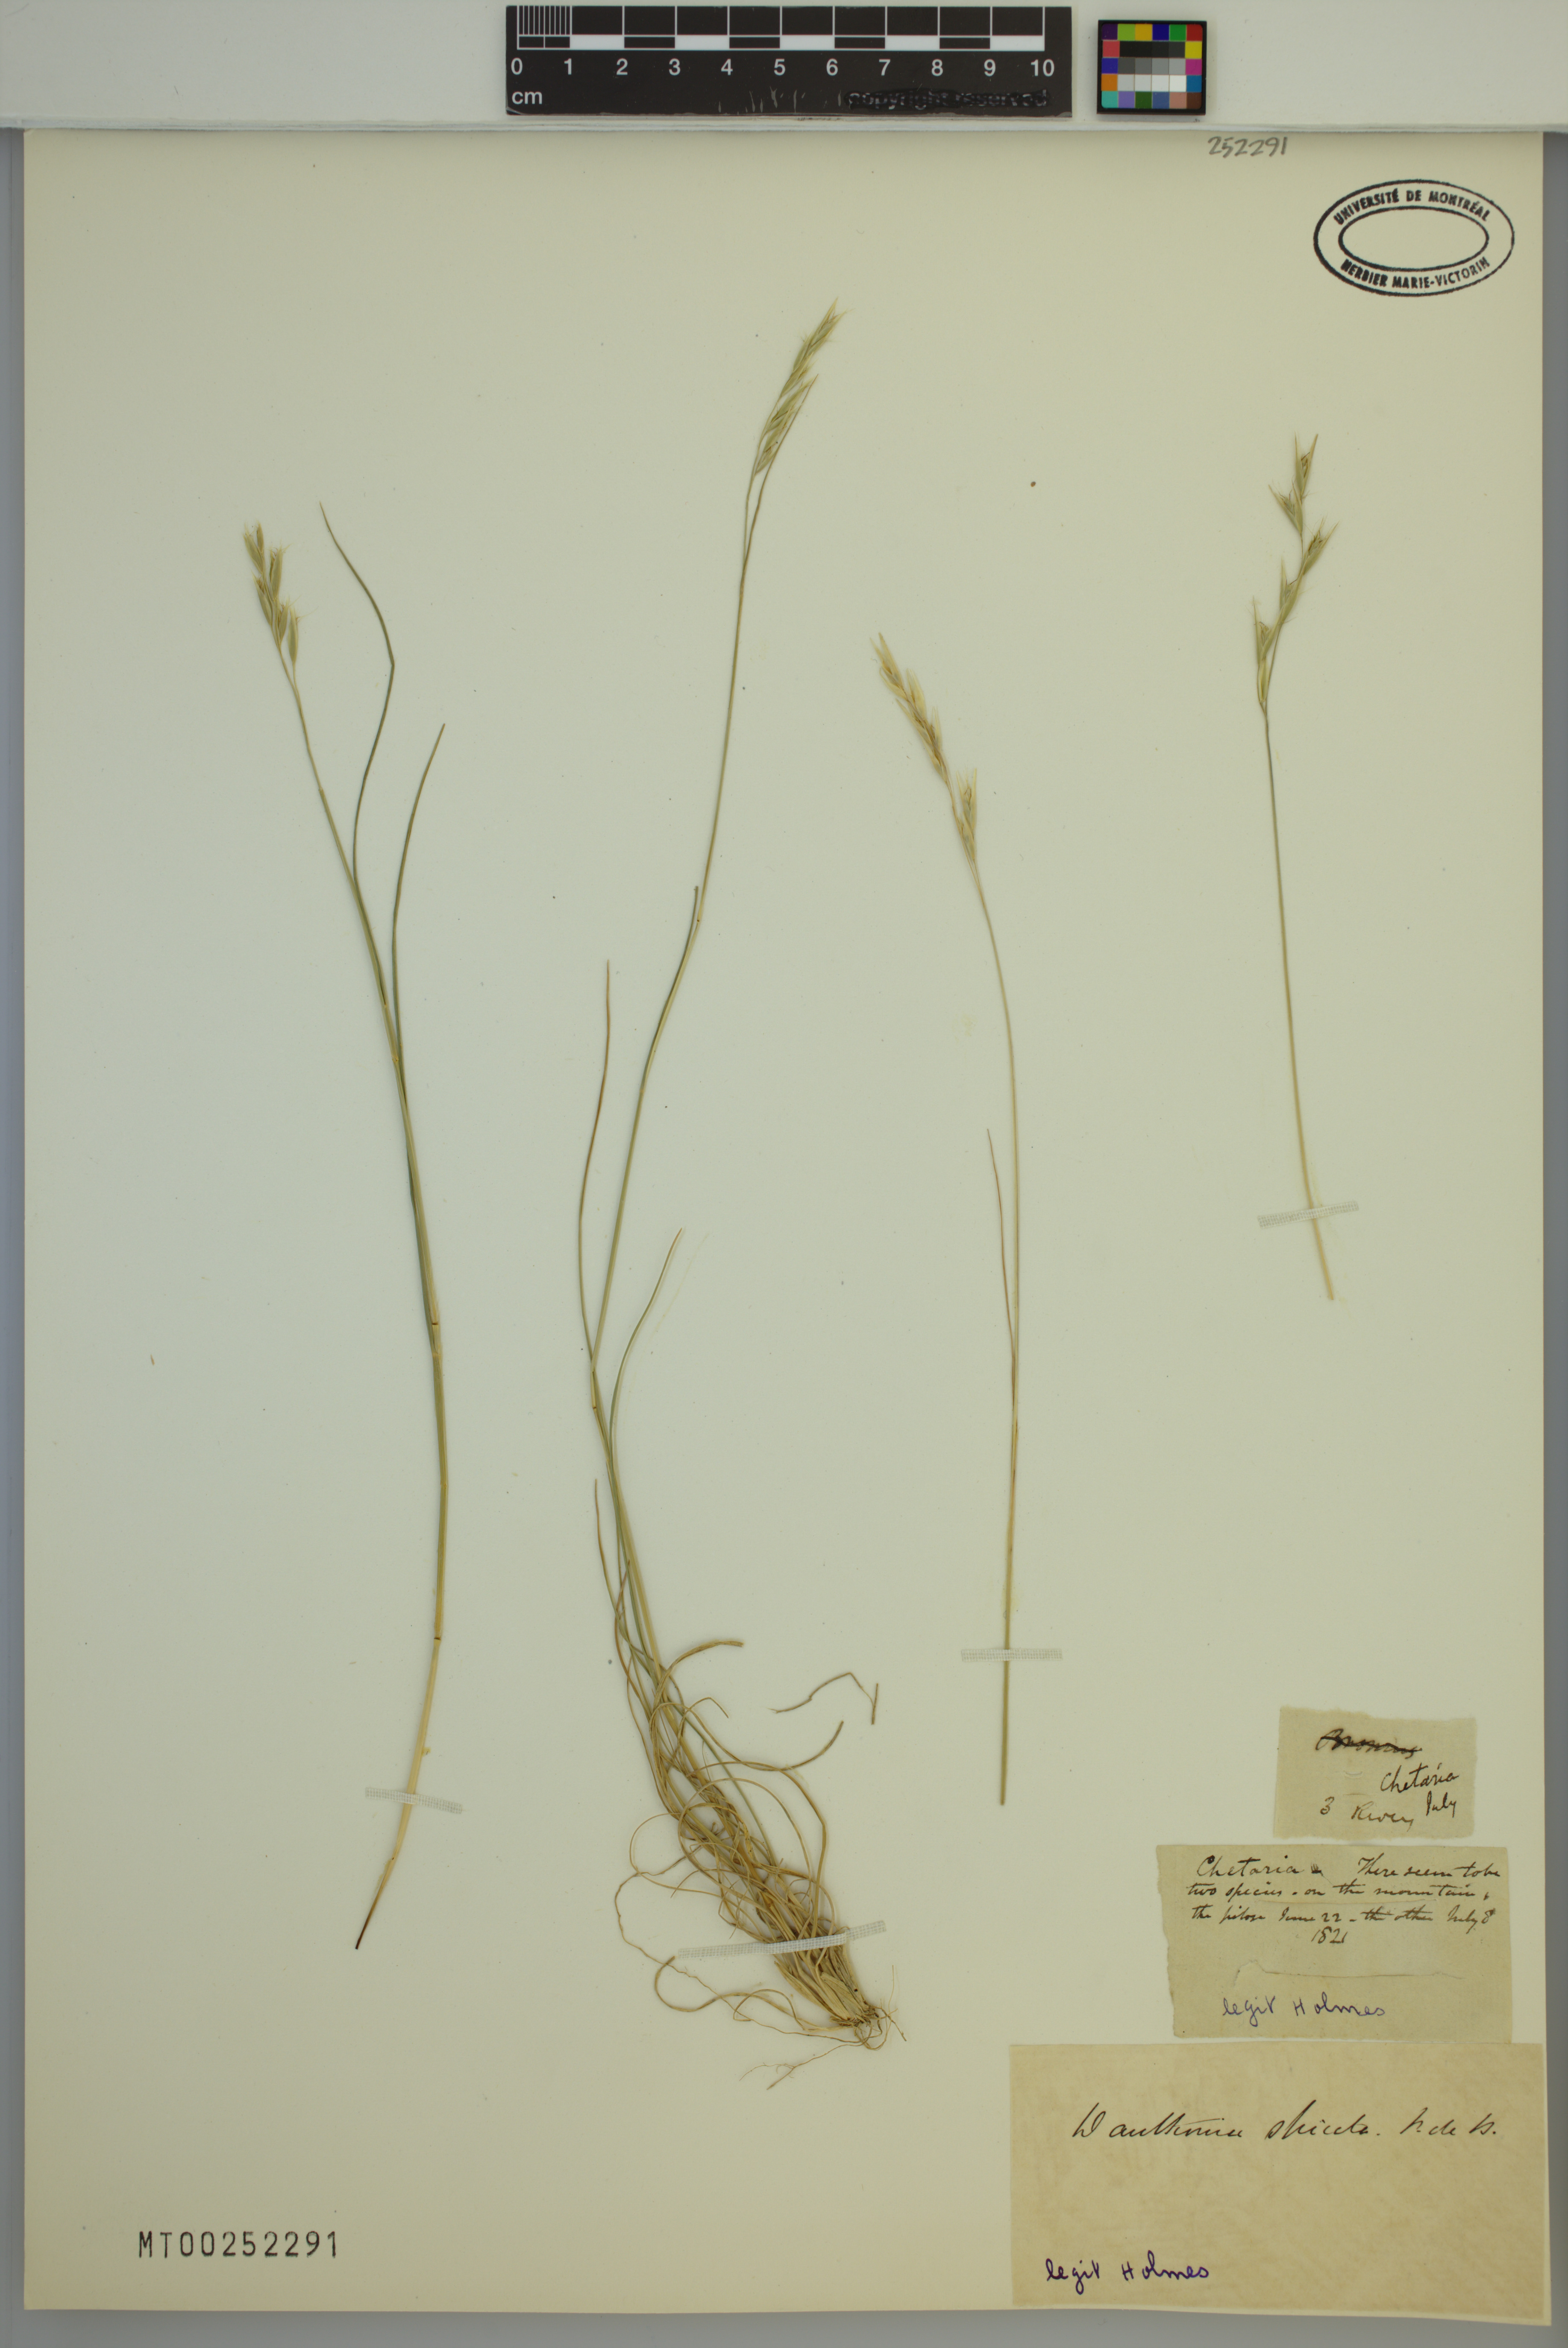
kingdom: Plantae
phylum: Tracheophyta
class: Liliopsida
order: Poales
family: Poaceae
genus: Danthonia
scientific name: Danthonia spicata
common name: Common wild oatgrass
